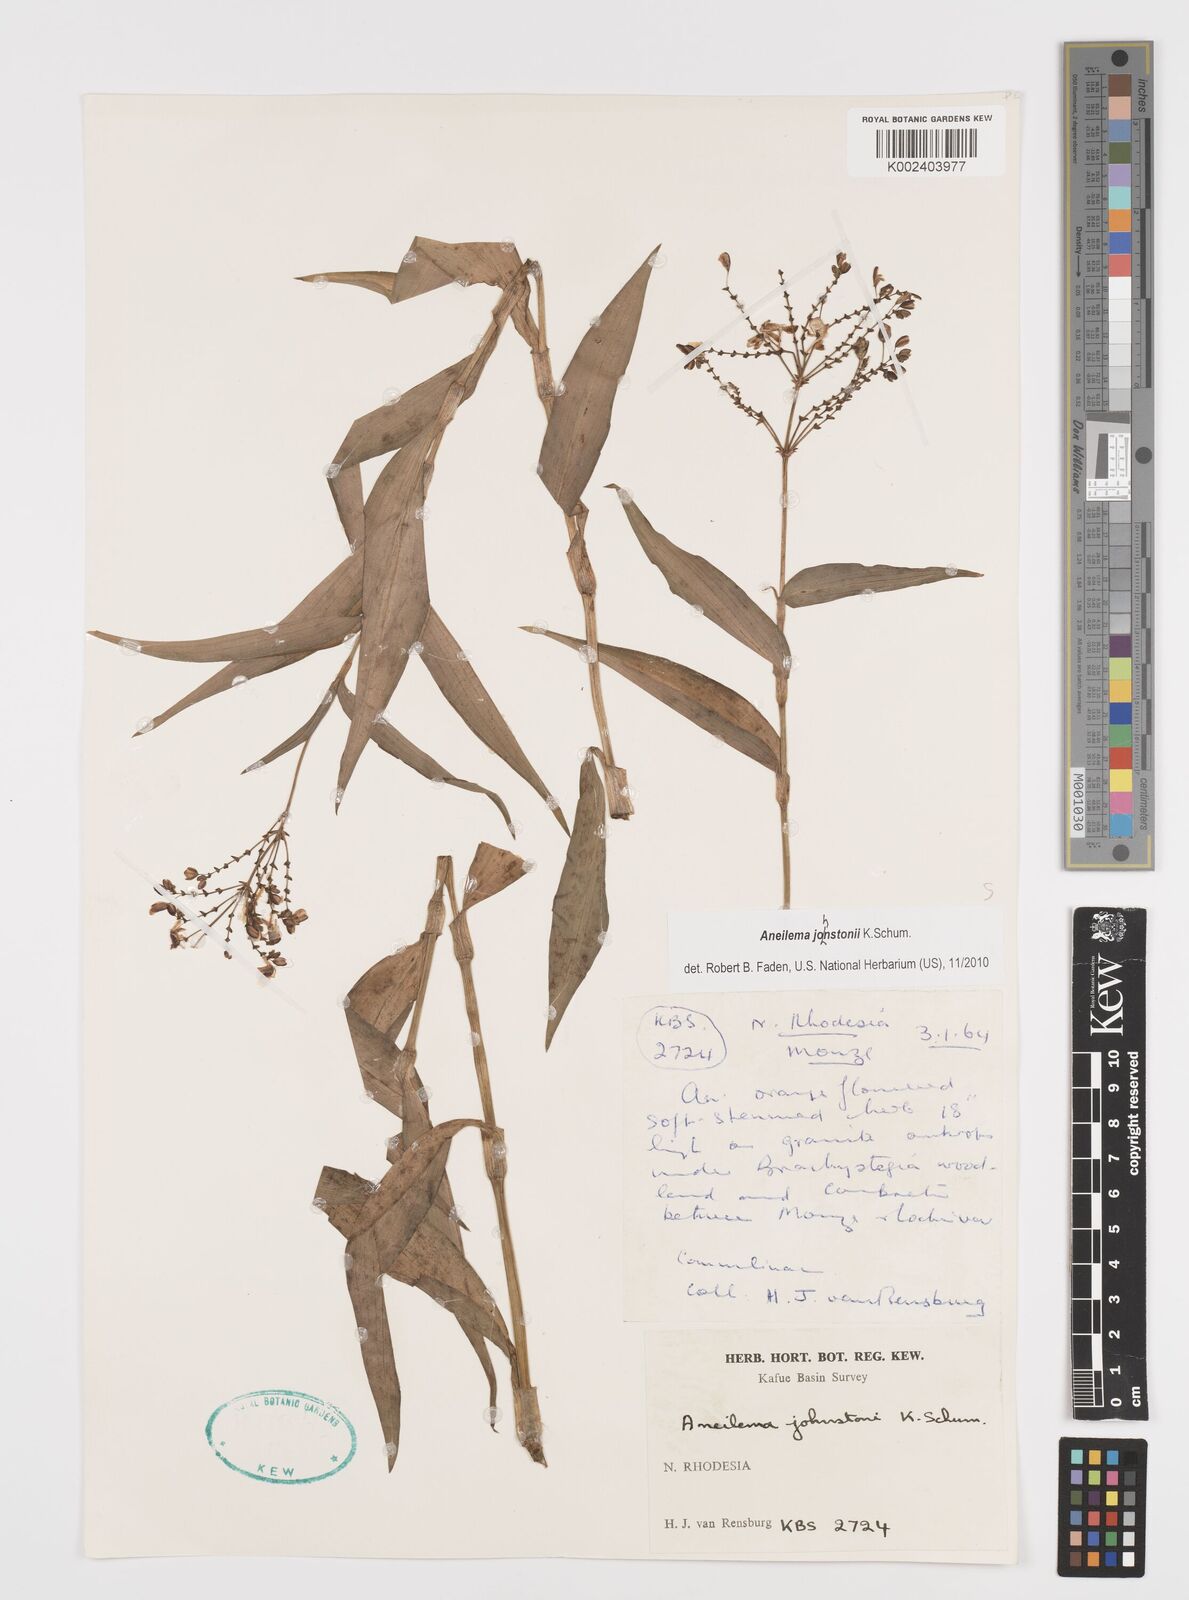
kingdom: Plantae
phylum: Tracheophyta
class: Liliopsida
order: Commelinales
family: Commelinaceae
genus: Aneilema
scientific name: Aneilema johnstonii
